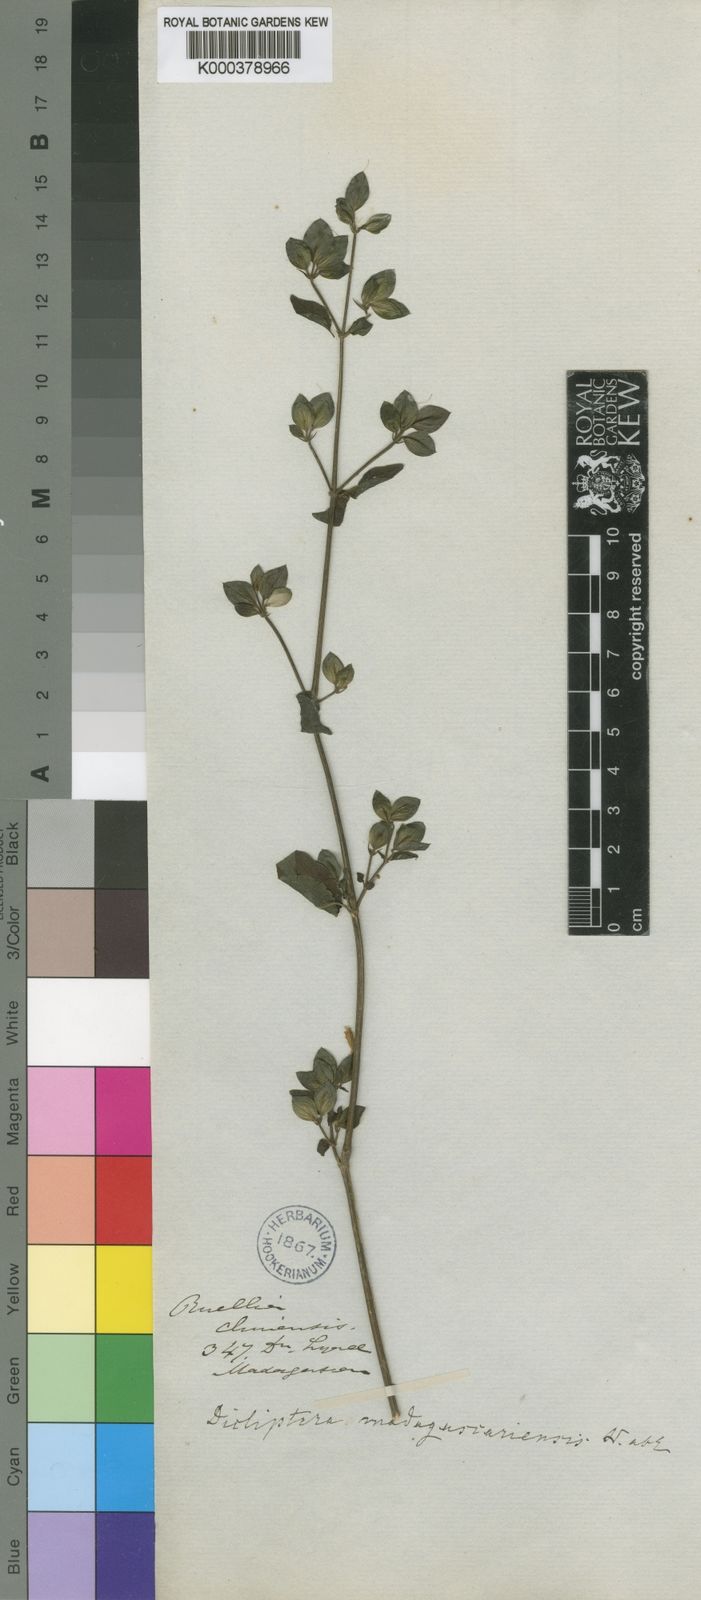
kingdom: Plantae
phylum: Tracheophyta
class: Magnoliopsida
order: Lamiales
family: Acanthaceae
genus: Dicliptera
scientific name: Dicliptera madagascariensis
